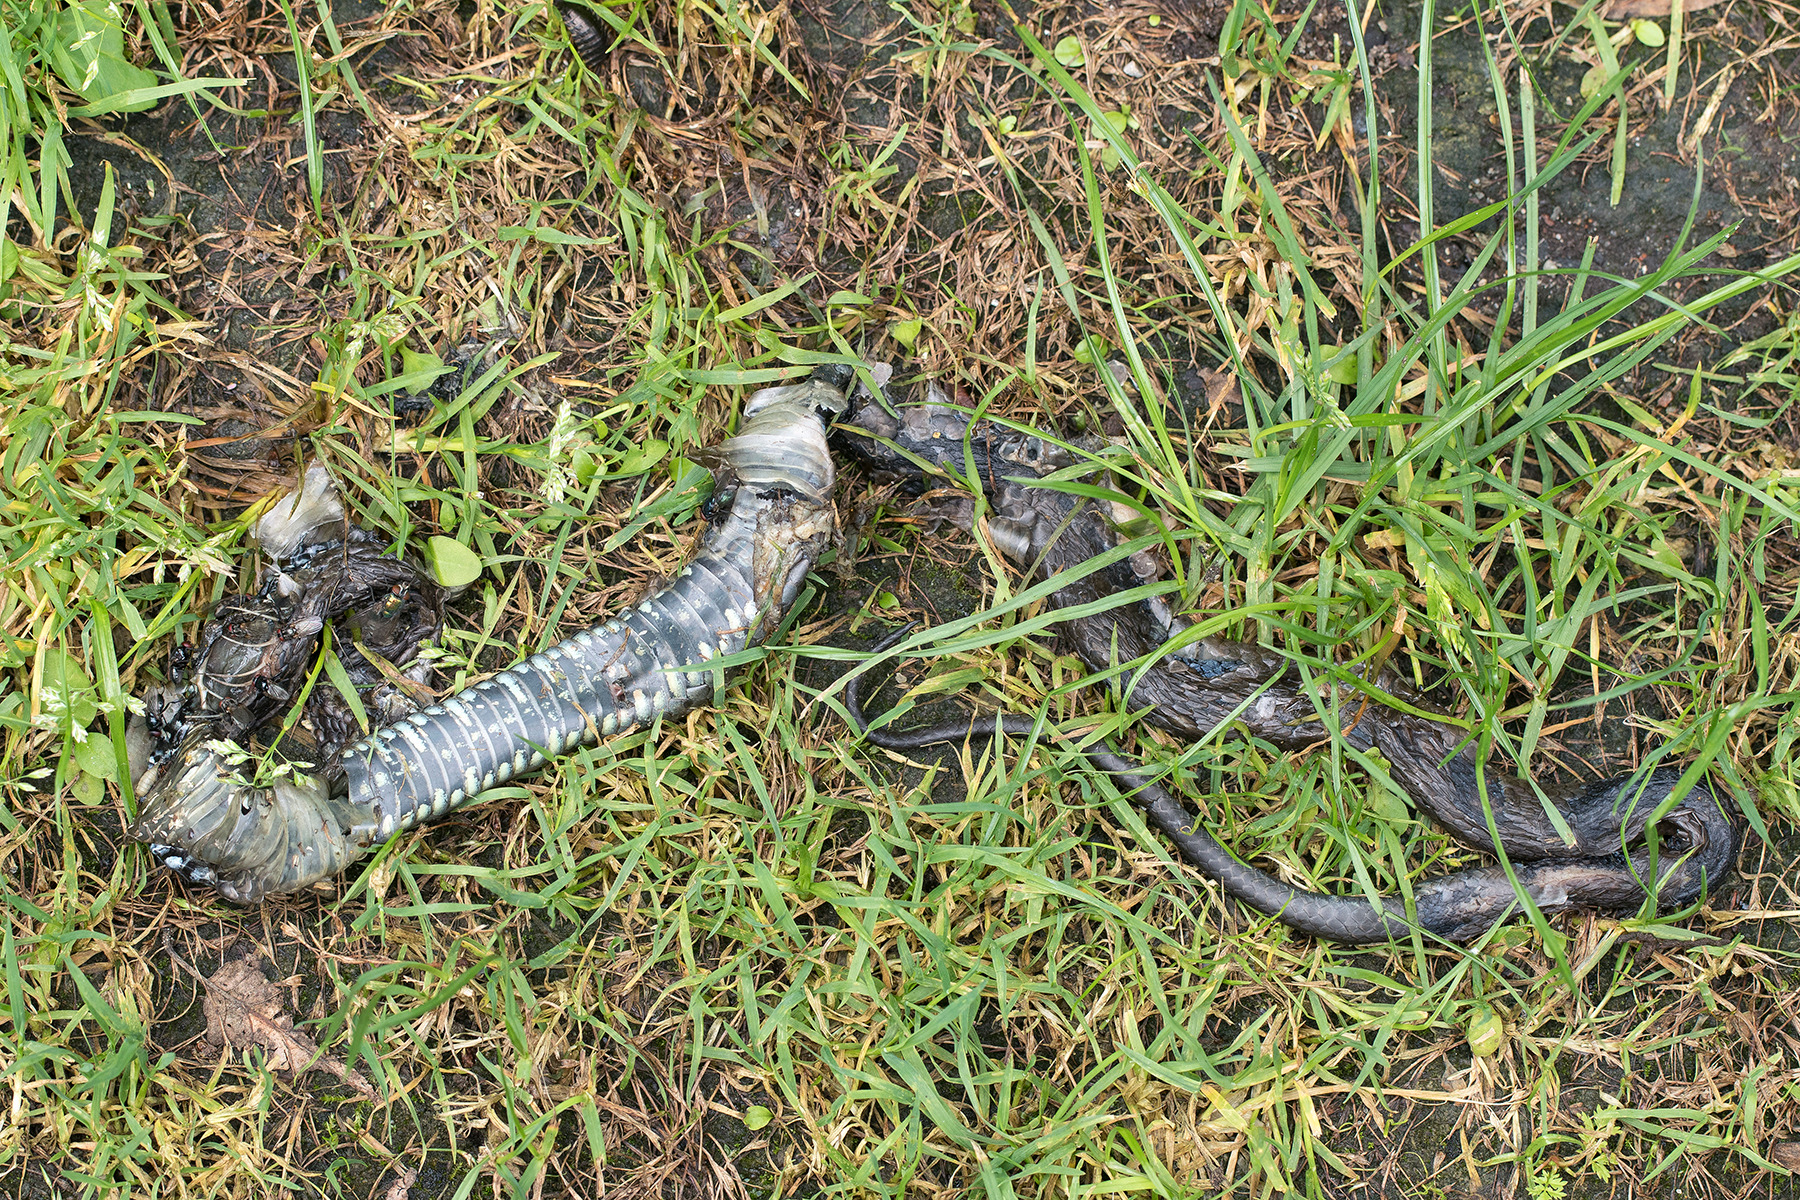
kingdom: Animalia
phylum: Chordata
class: Squamata
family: Colubridae
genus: Natrix
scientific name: Natrix natrix
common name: Snog
